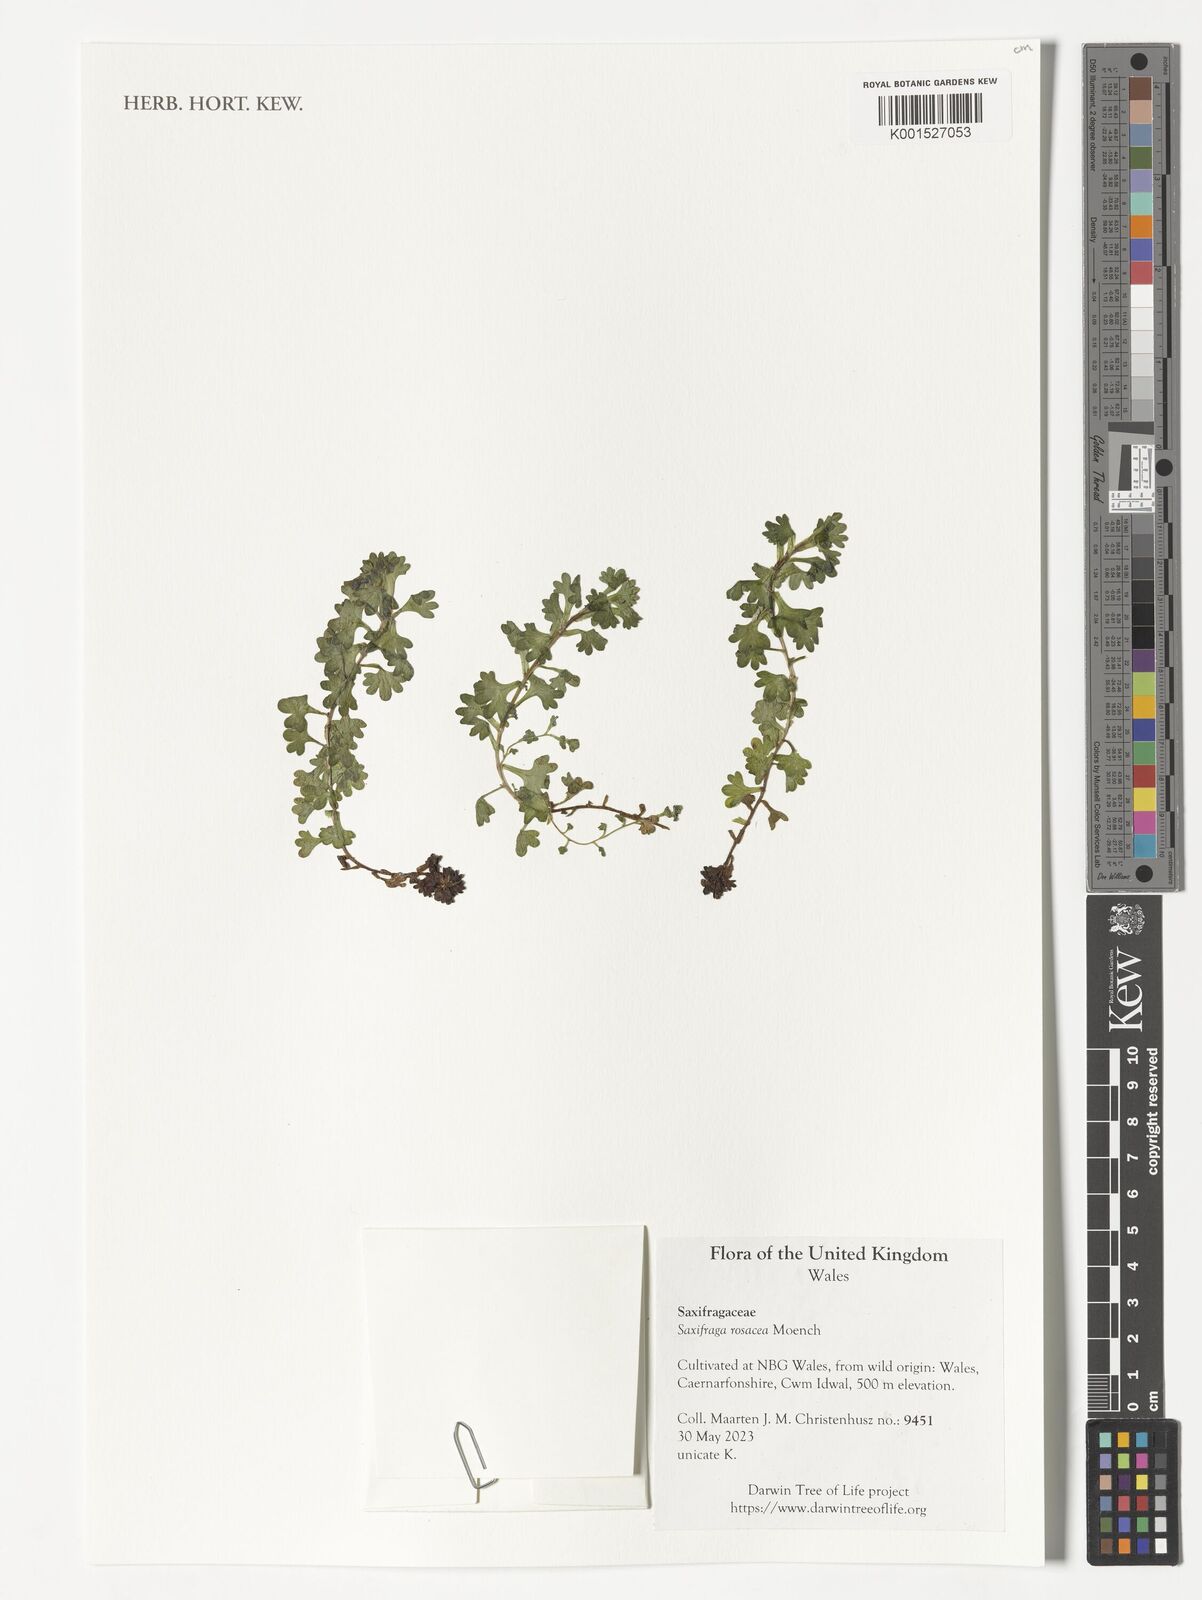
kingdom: Plantae
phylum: Tracheophyta
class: Magnoliopsida
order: Saxifragales
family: Saxifragaceae
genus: Saxifraga
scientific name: Saxifraga rosacea
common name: Irish saxifrage
